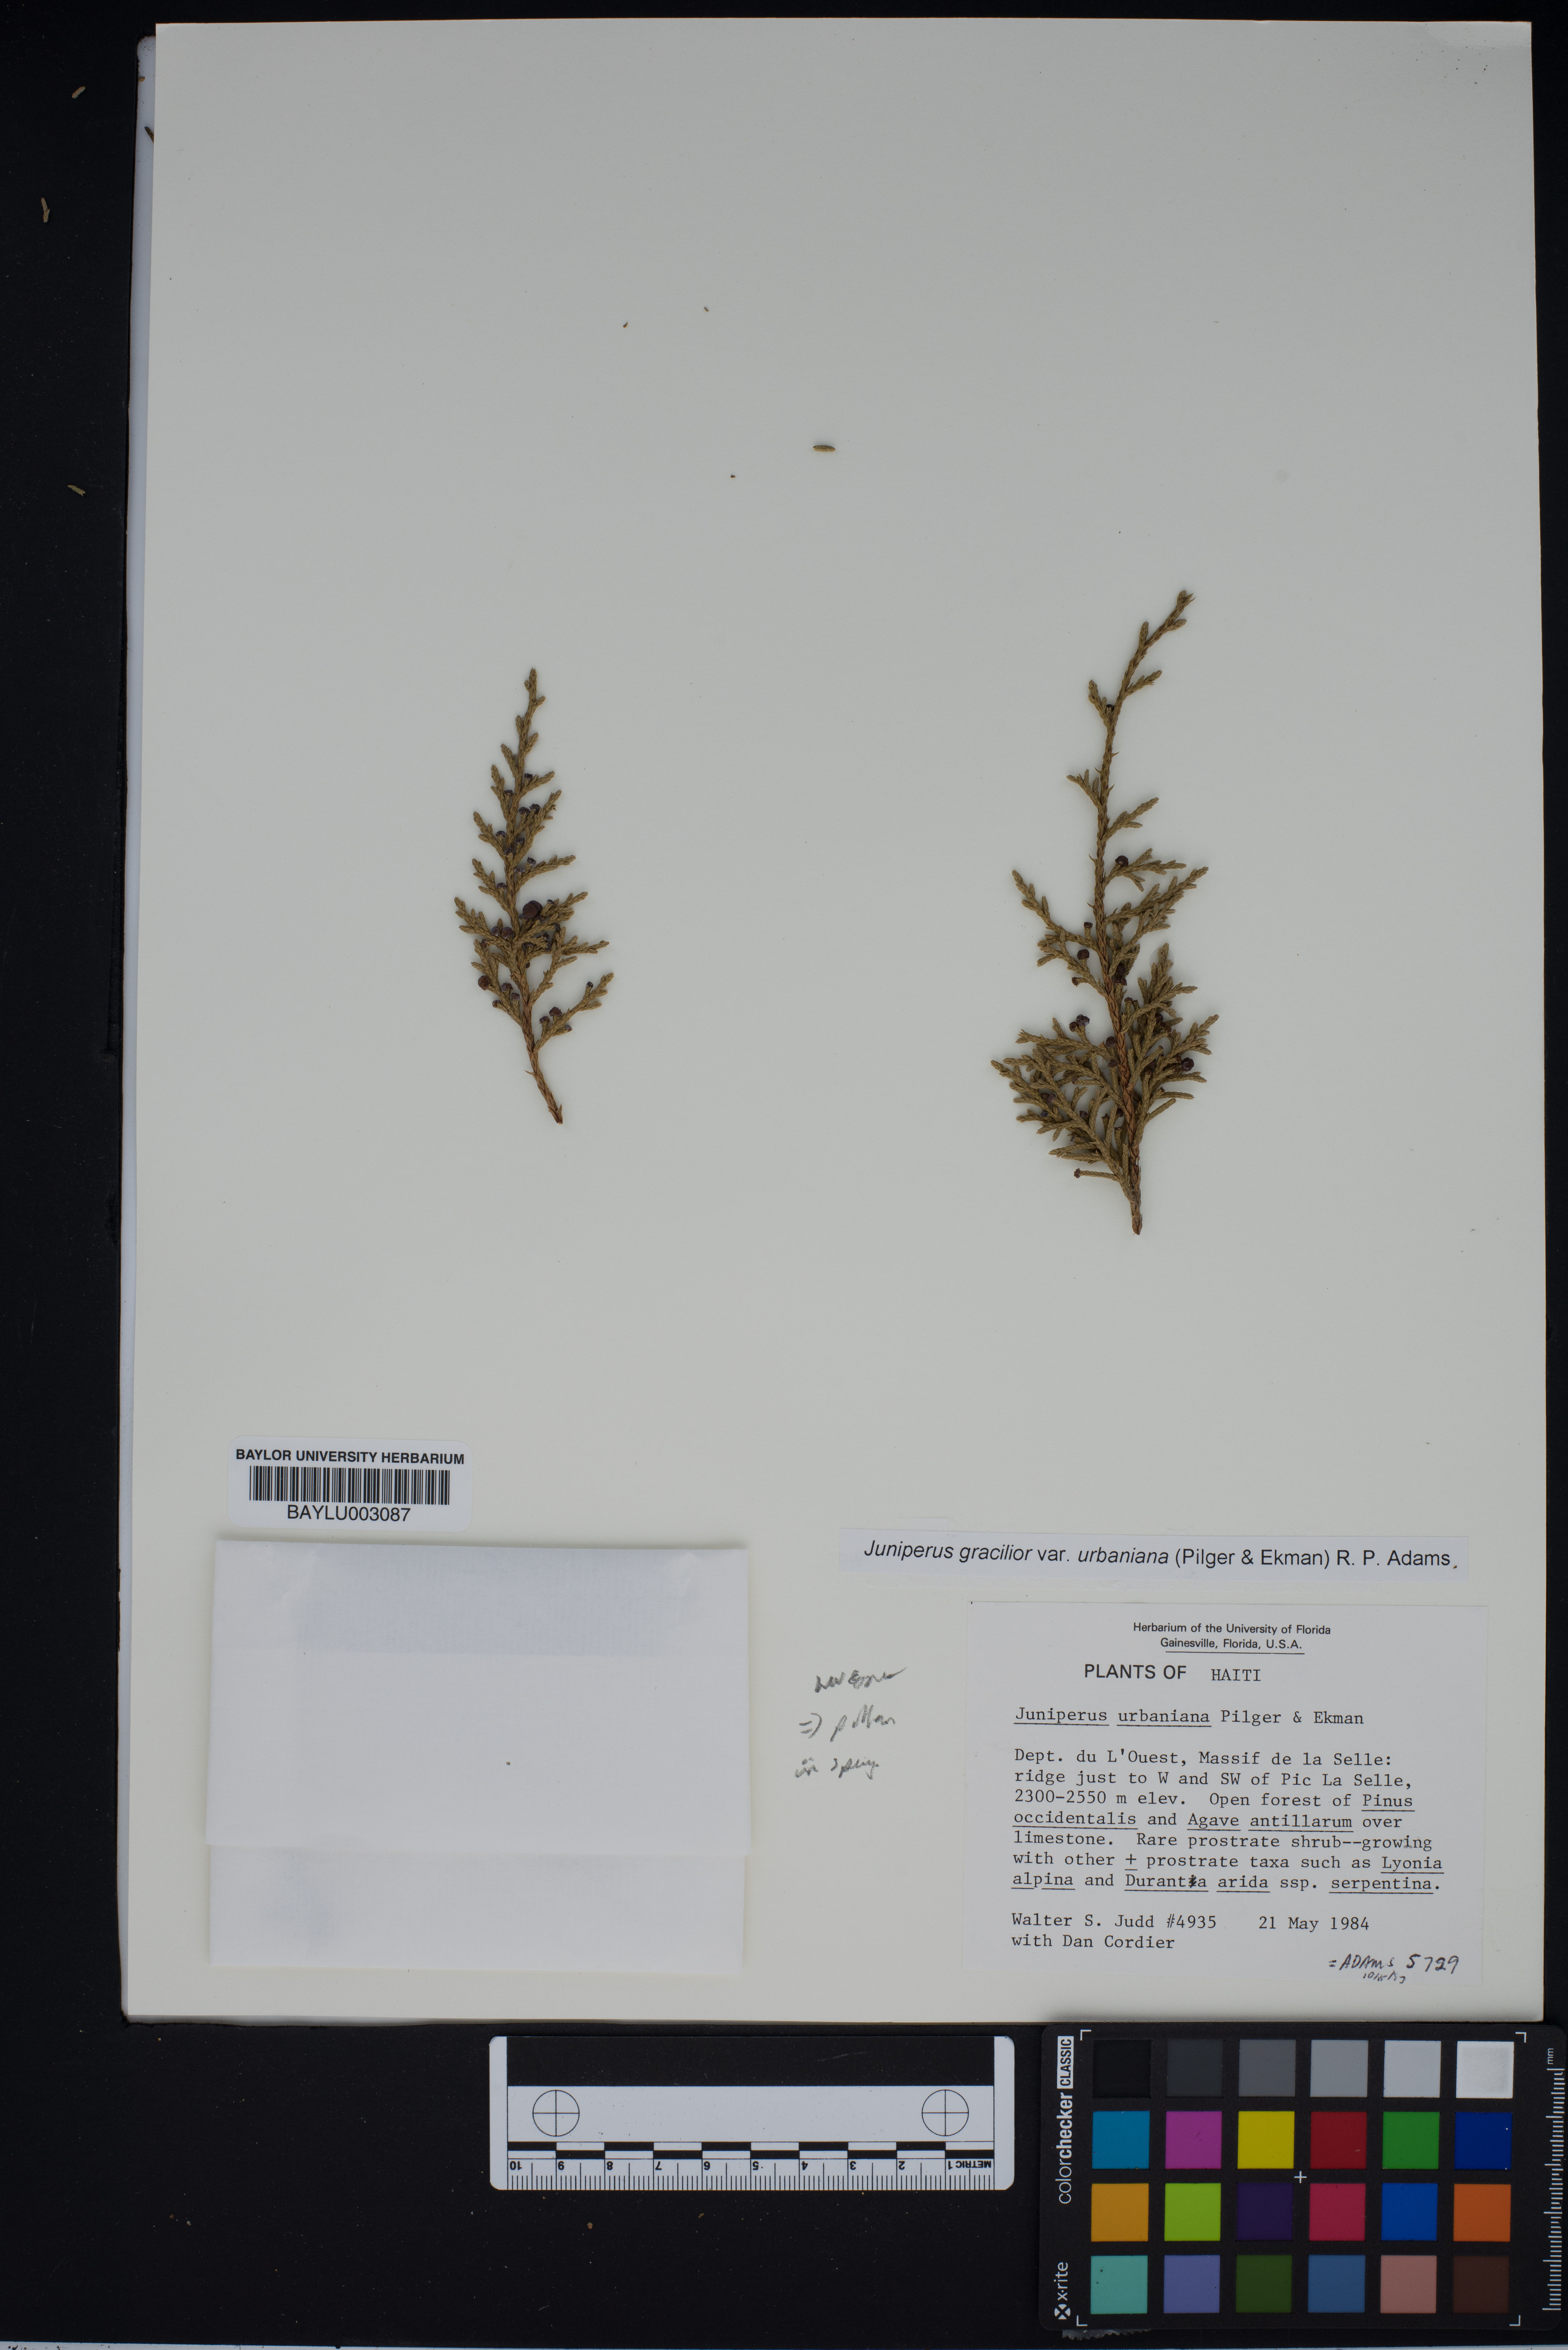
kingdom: Plantae
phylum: Tracheophyta
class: Pinopsida
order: Pinales
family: Cupressaceae
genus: Juniperus
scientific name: Juniperus gracilior
